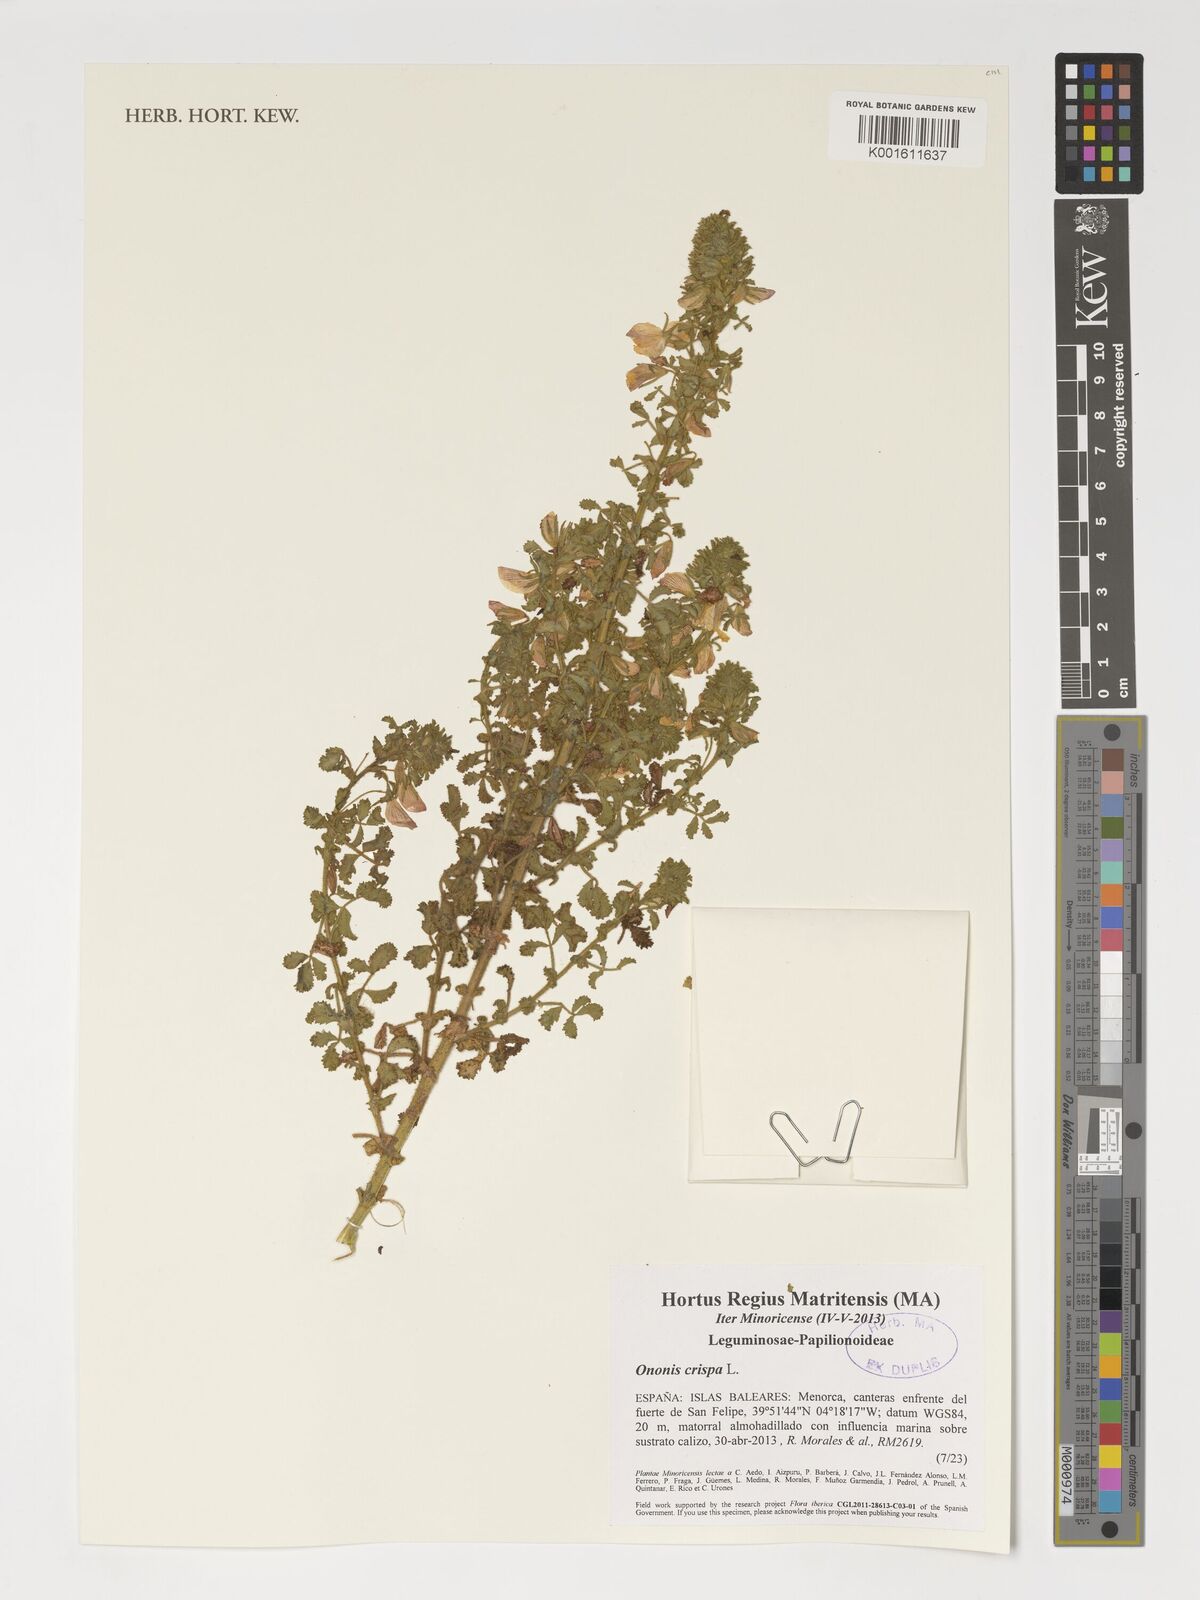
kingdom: Plantae
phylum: Tracheophyta
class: Magnoliopsida
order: Fabales
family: Fabaceae
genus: Ononis
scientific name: Ononis crispa
